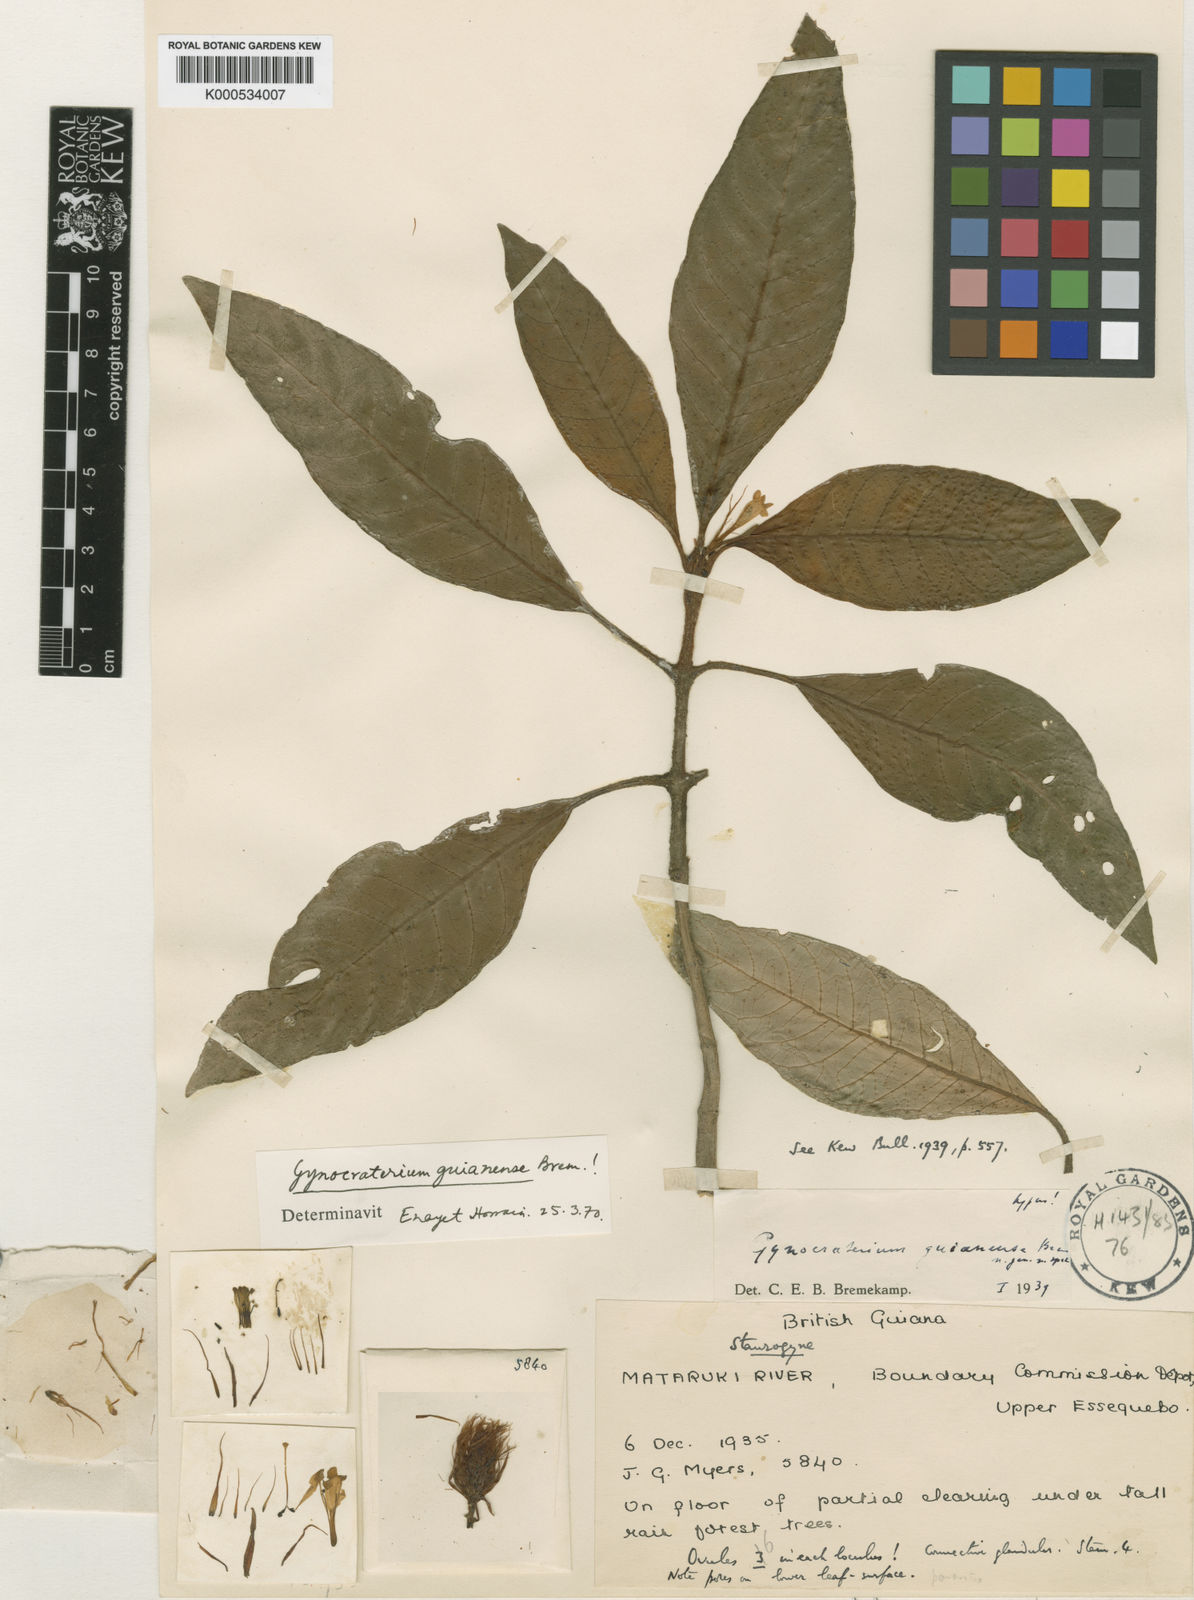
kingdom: Plantae
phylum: Tracheophyta
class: Magnoliopsida
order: Lamiales
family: Acanthaceae
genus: Staurogyne
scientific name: Staurogyne guianensis
